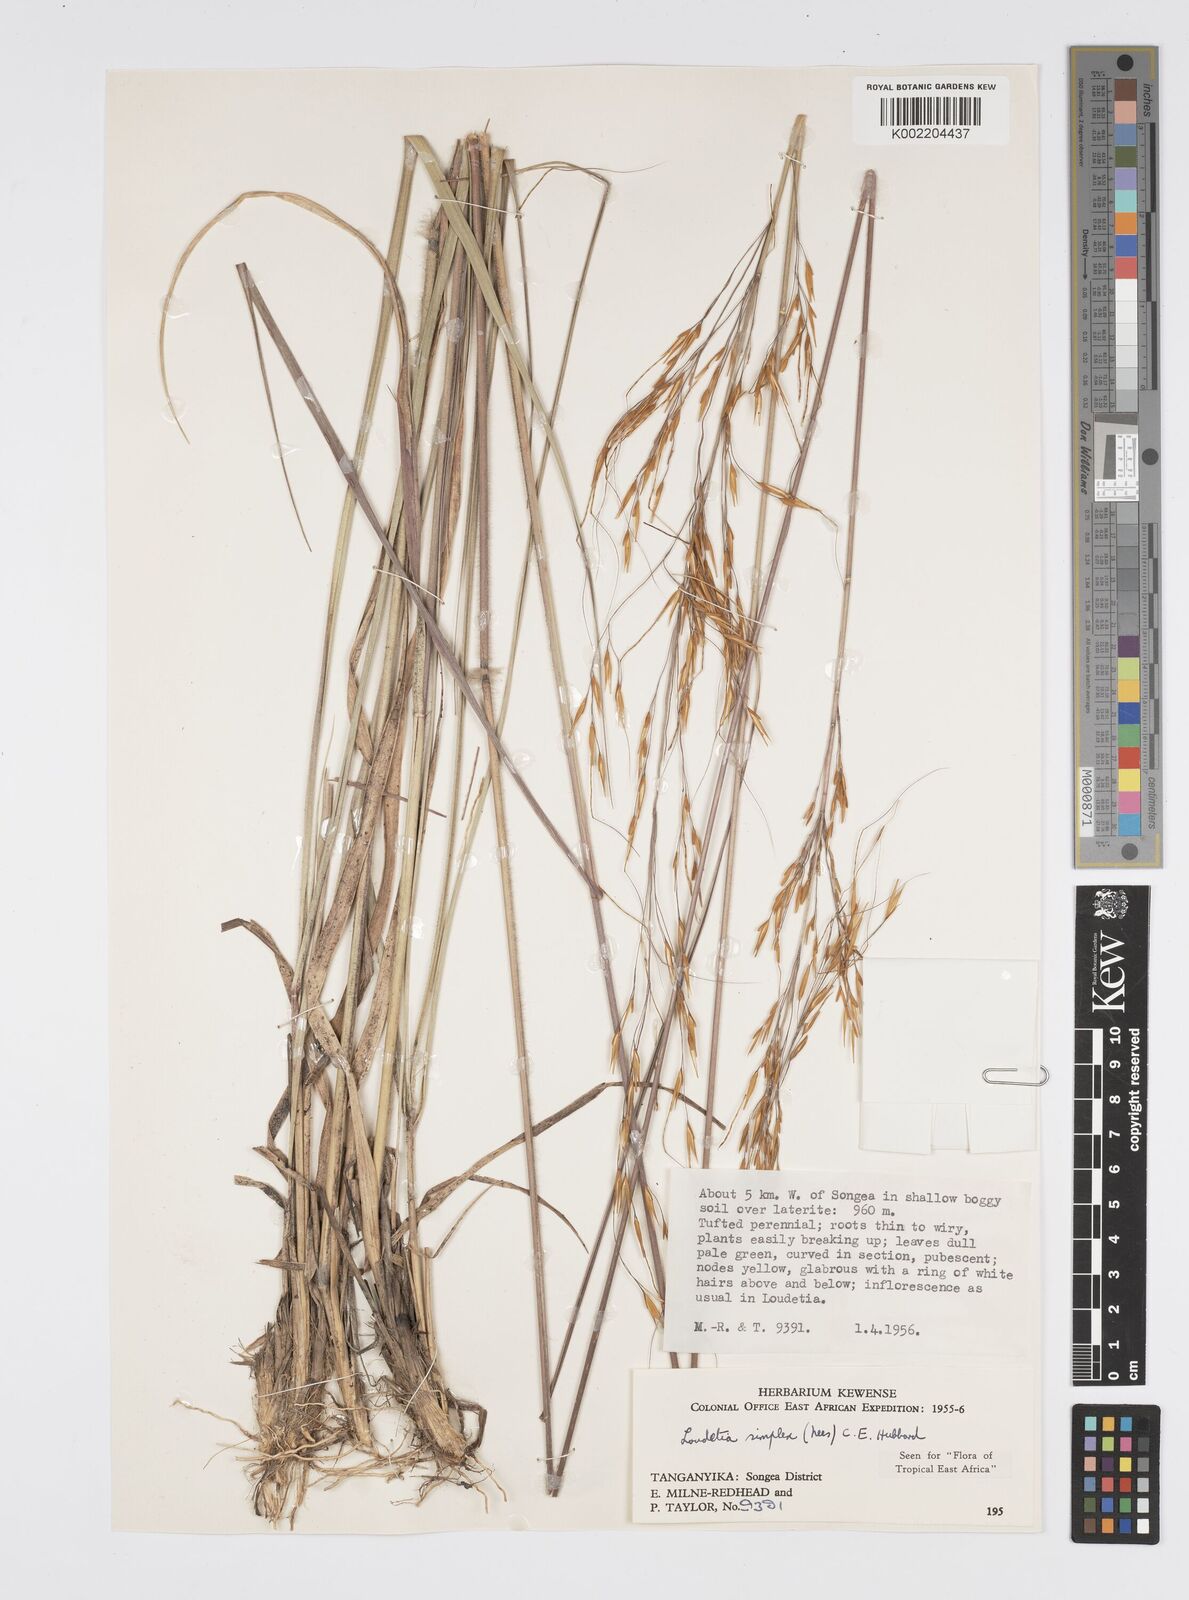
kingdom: Plantae
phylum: Tracheophyta
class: Liliopsida
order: Poales
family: Poaceae
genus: Loudetia
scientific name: Loudetia simplex
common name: Common russet grass
